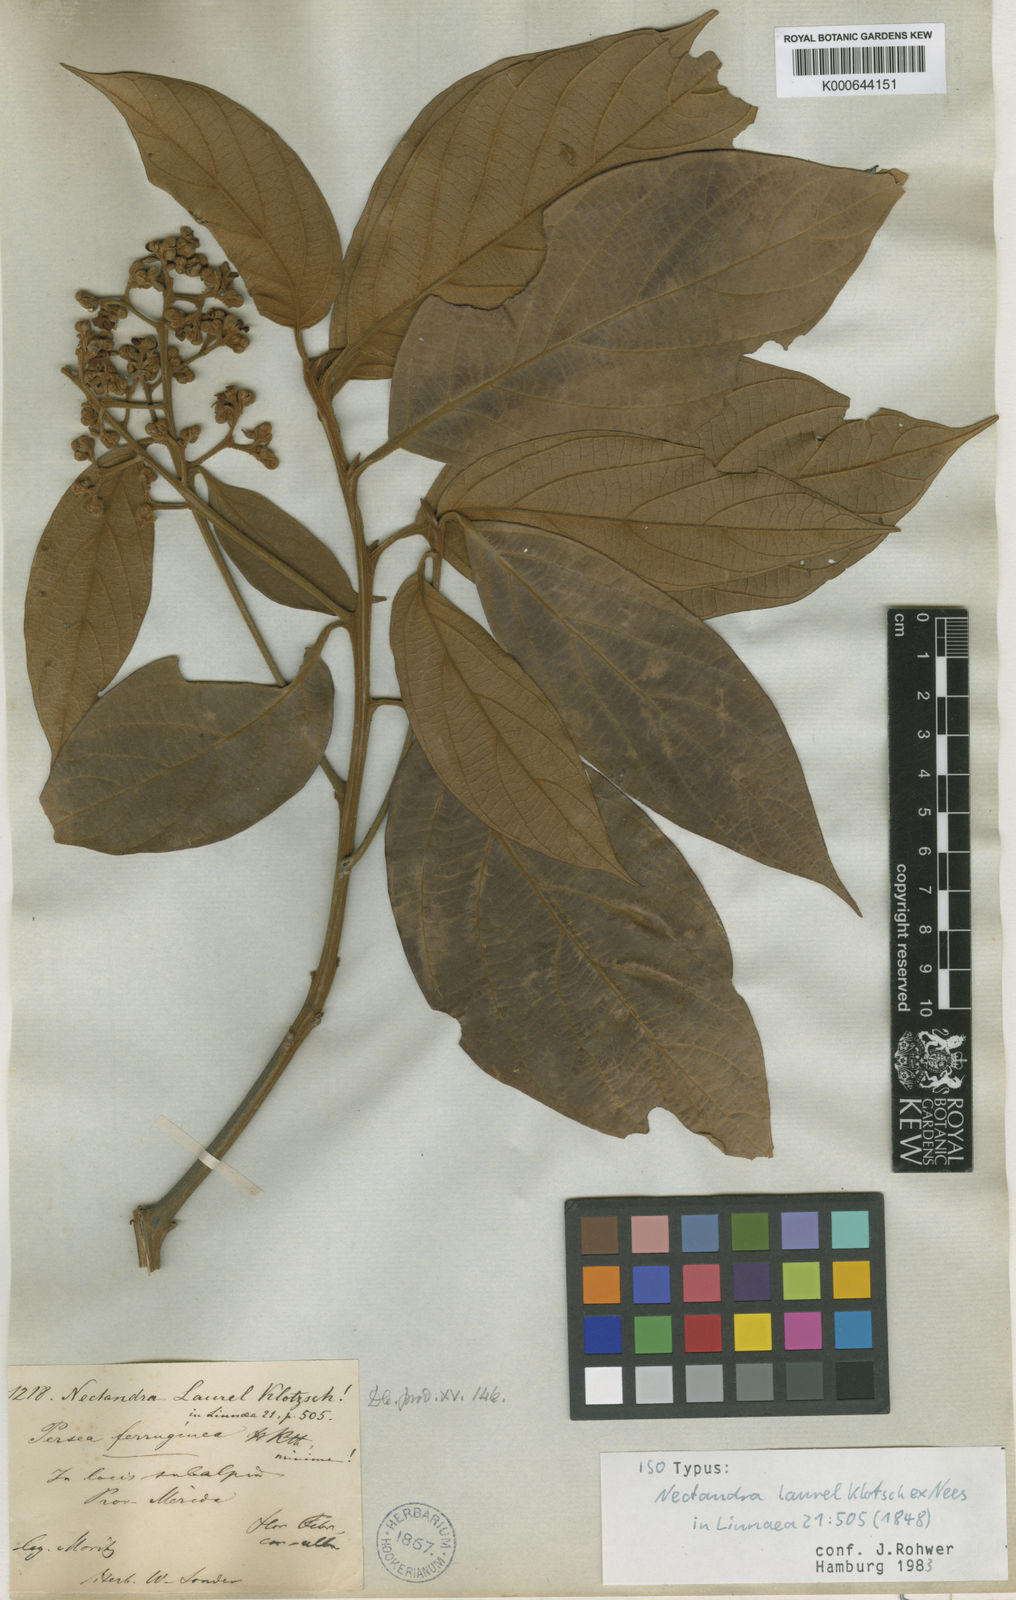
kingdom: Plantae
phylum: Tracheophyta
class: Magnoliopsida
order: Laurales
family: Lauraceae
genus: Nectandra
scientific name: Nectandra laurel
